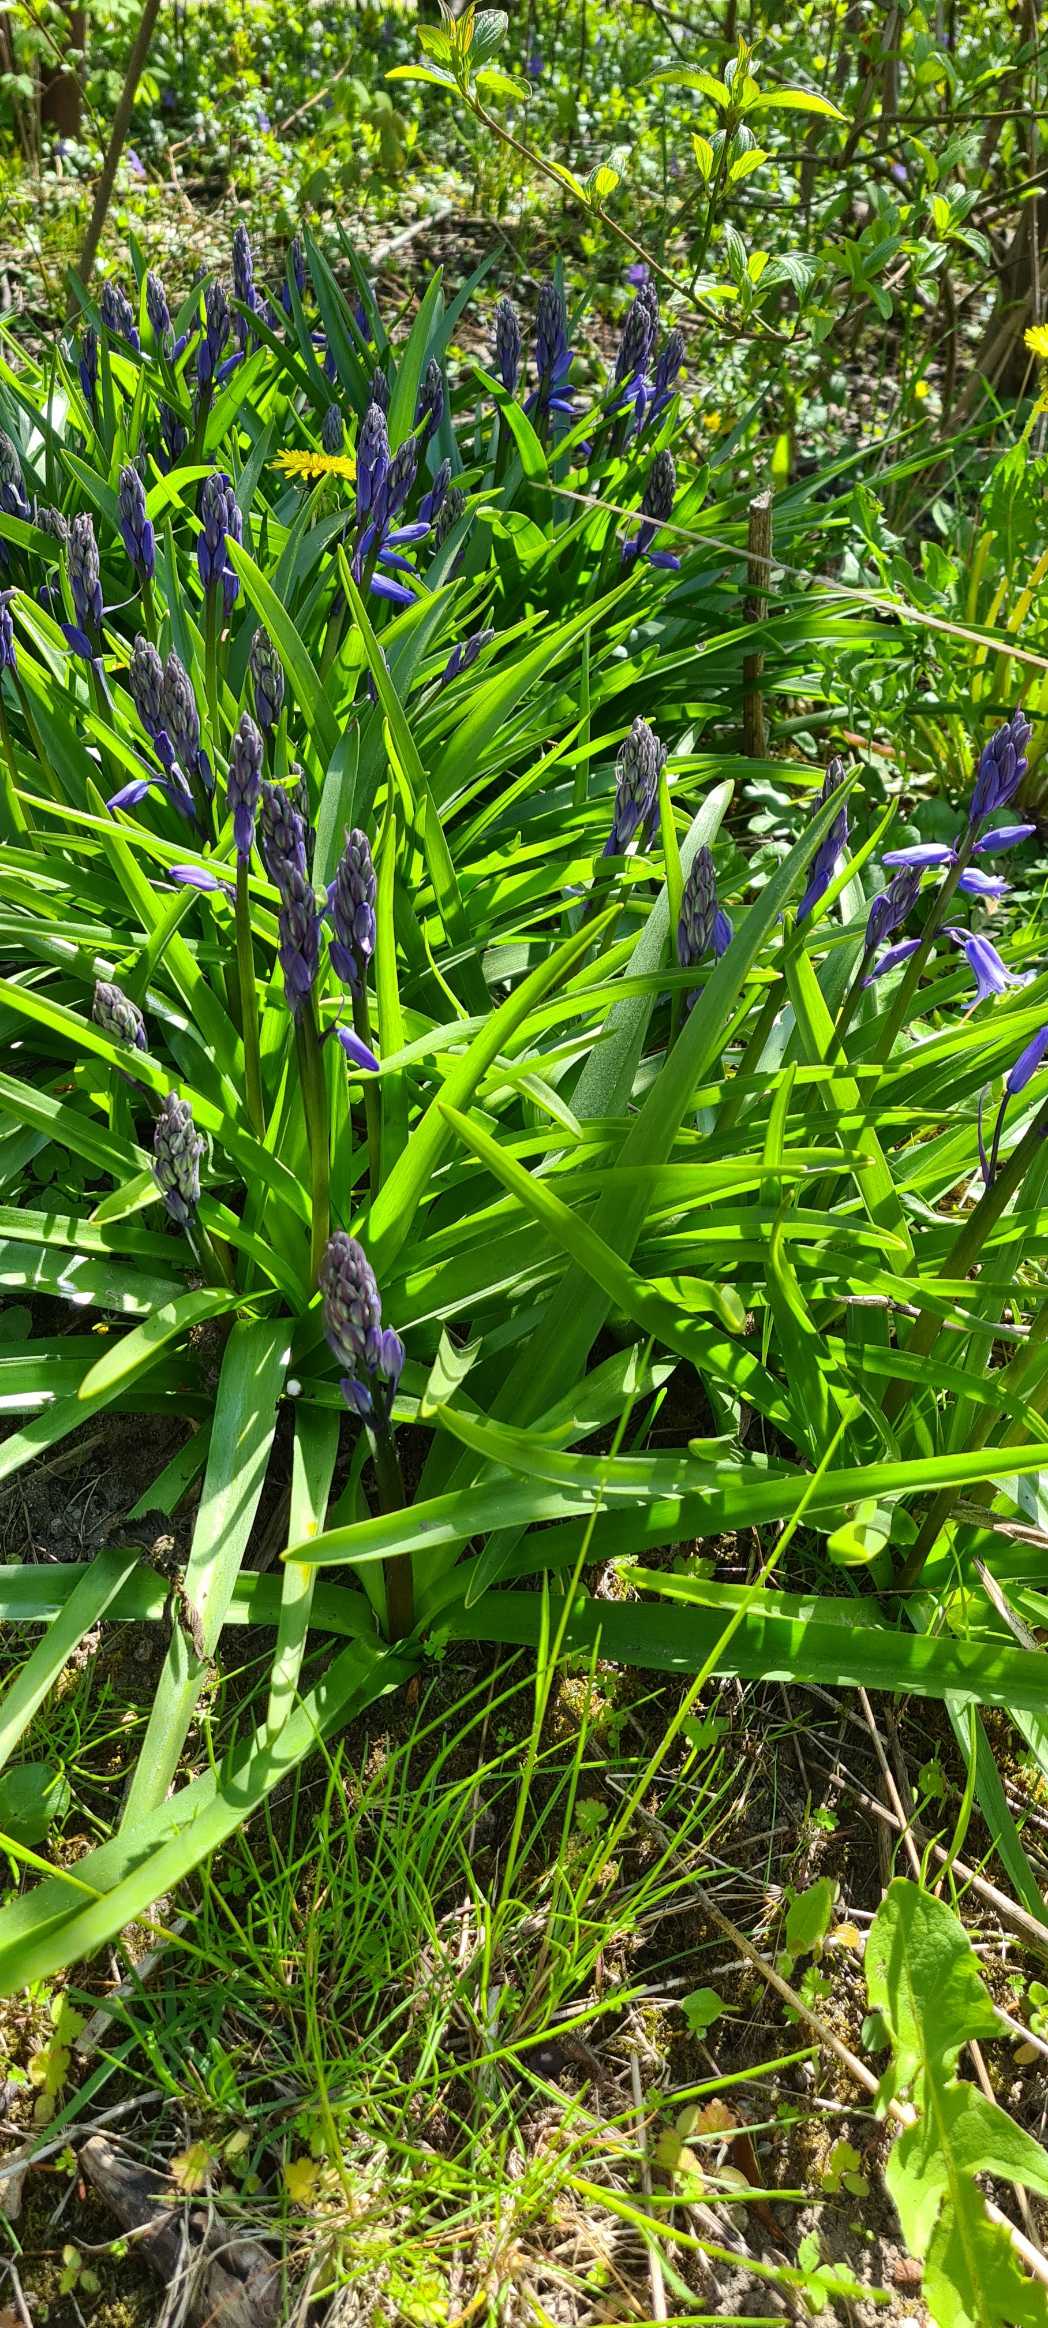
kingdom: Plantae
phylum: Tracheophyta
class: Liliopsida
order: Asparagales
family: Asparagaceae
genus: Hyacinthoides
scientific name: Hyacinthoides massartiana
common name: Hybrid-klokkeskilla
